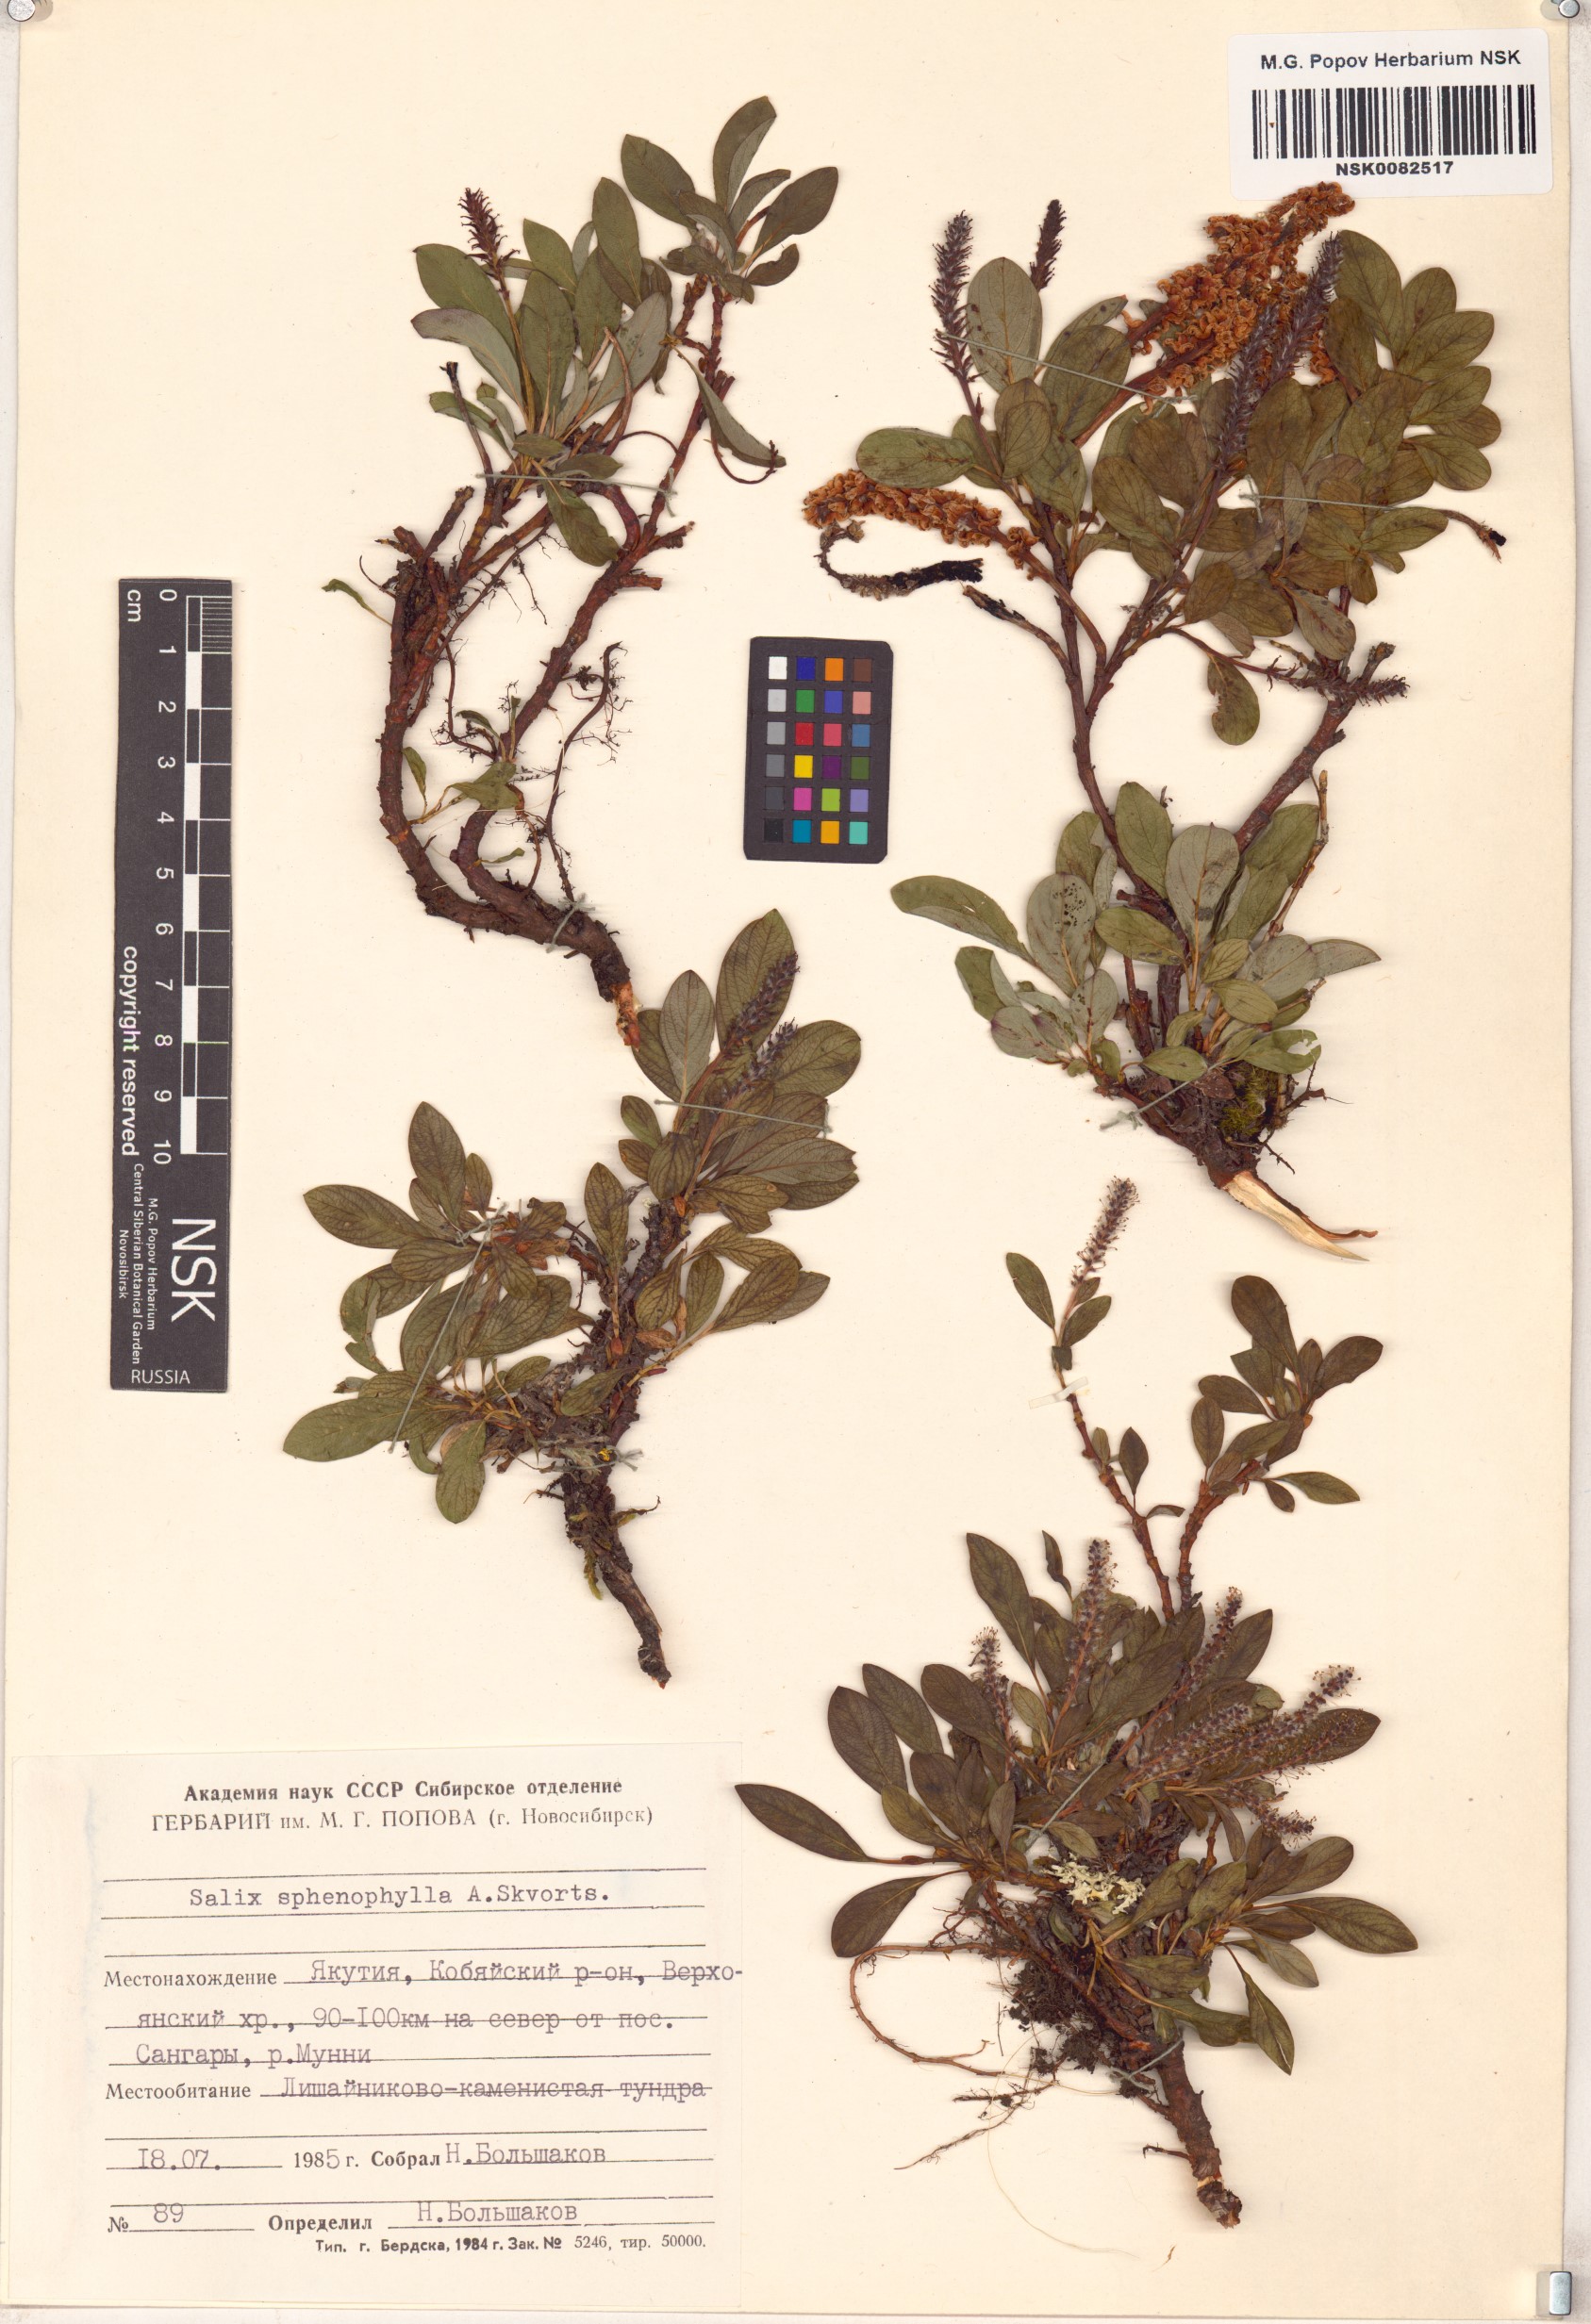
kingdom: Plantae
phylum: Tracheophyta
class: Magnoliopsida
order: Malpighiales
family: Salicaceae
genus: Salix
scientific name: Salix sphenophylla
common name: Wedge-leaved willow
